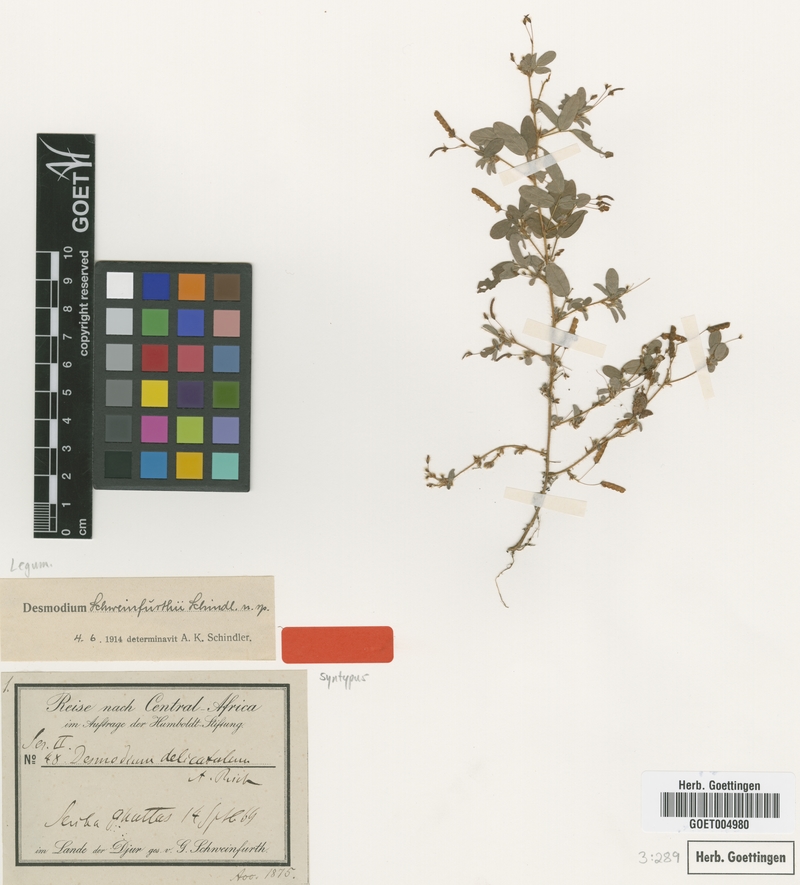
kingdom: Plantae
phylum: Tracheophyta
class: Magnoliopsida
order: Fabales
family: Fabaceae
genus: Grona
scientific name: Grona schweinfurthii
